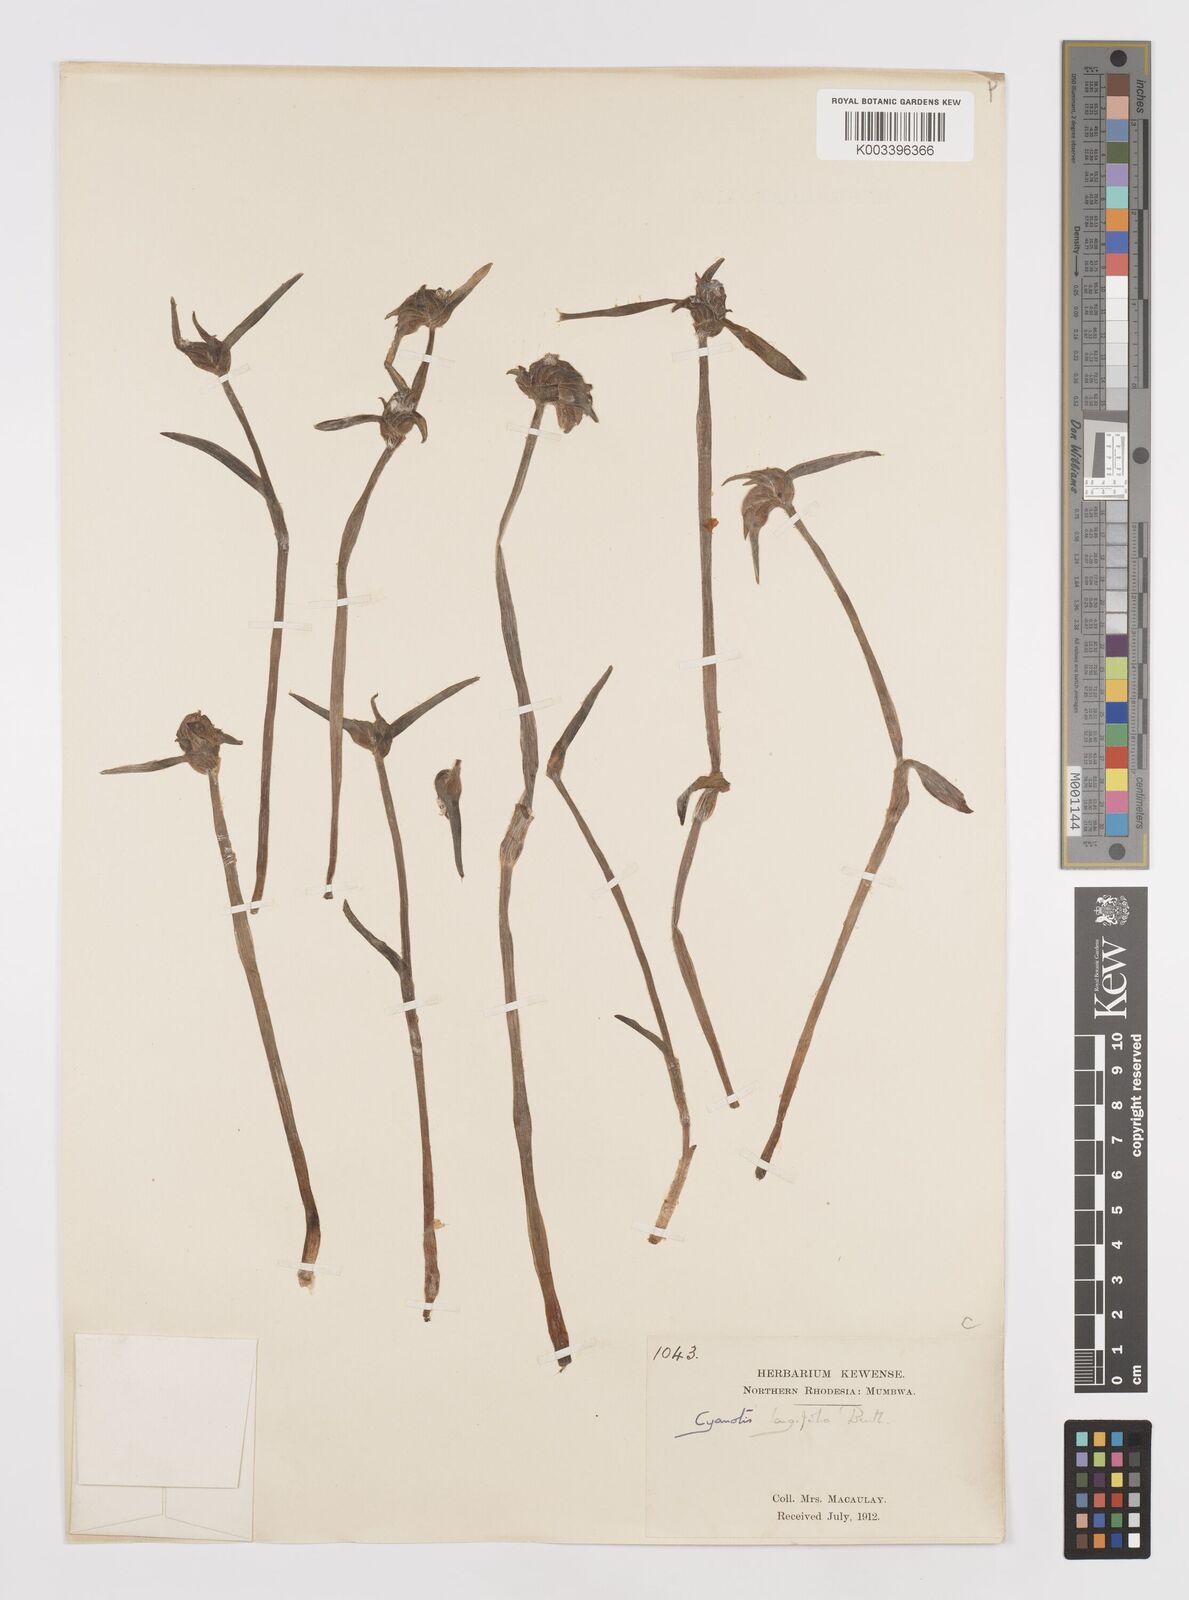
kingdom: Plantae
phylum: Tracheophyta
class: Liliopsida
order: Commelinales
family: Commelinaceae
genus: Cyanotis
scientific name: Cyanotis longifolia
